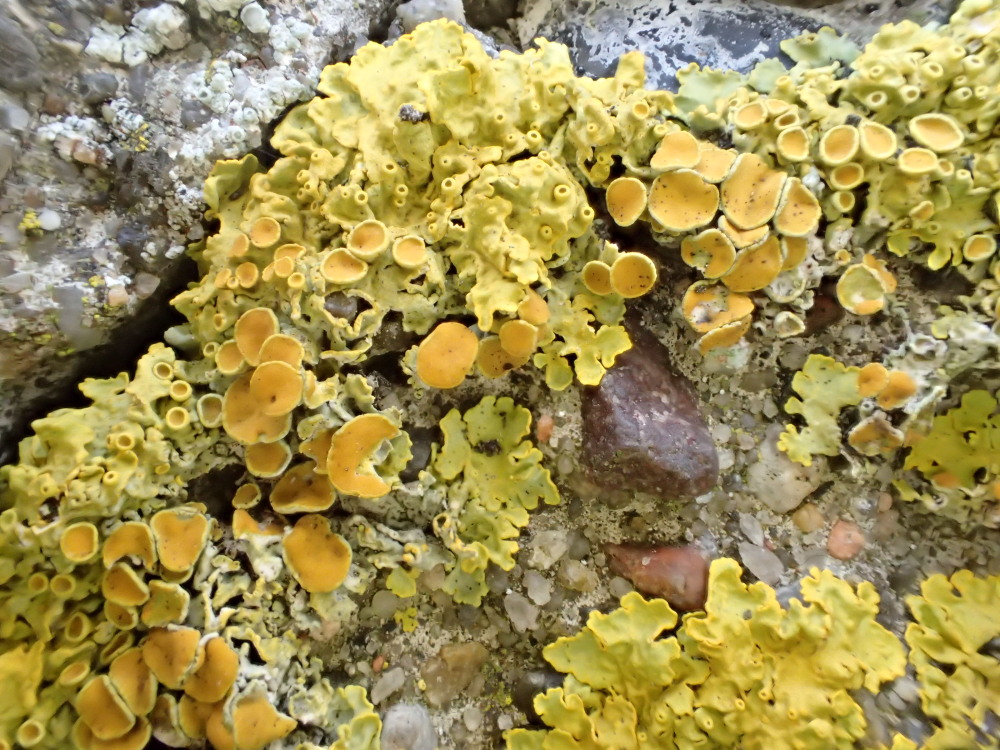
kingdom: Fungi
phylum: Ascomycota
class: Lecanoromycetes
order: Teloschistales
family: Teloschistaceae
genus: Xanthoria
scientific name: Xanthoria parietina
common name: almindelig væggelav
